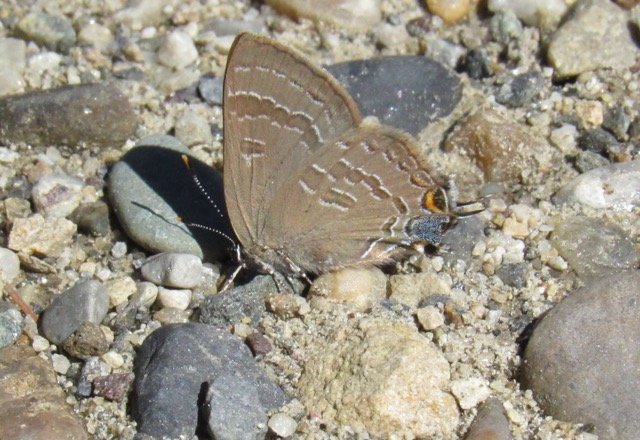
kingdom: Animalia
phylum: Arthropoda
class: Insecta
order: Lepidoptera
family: Lycaenidae
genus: Strymon
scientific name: Strymon caryaevorus
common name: Hickory Hairstreak
